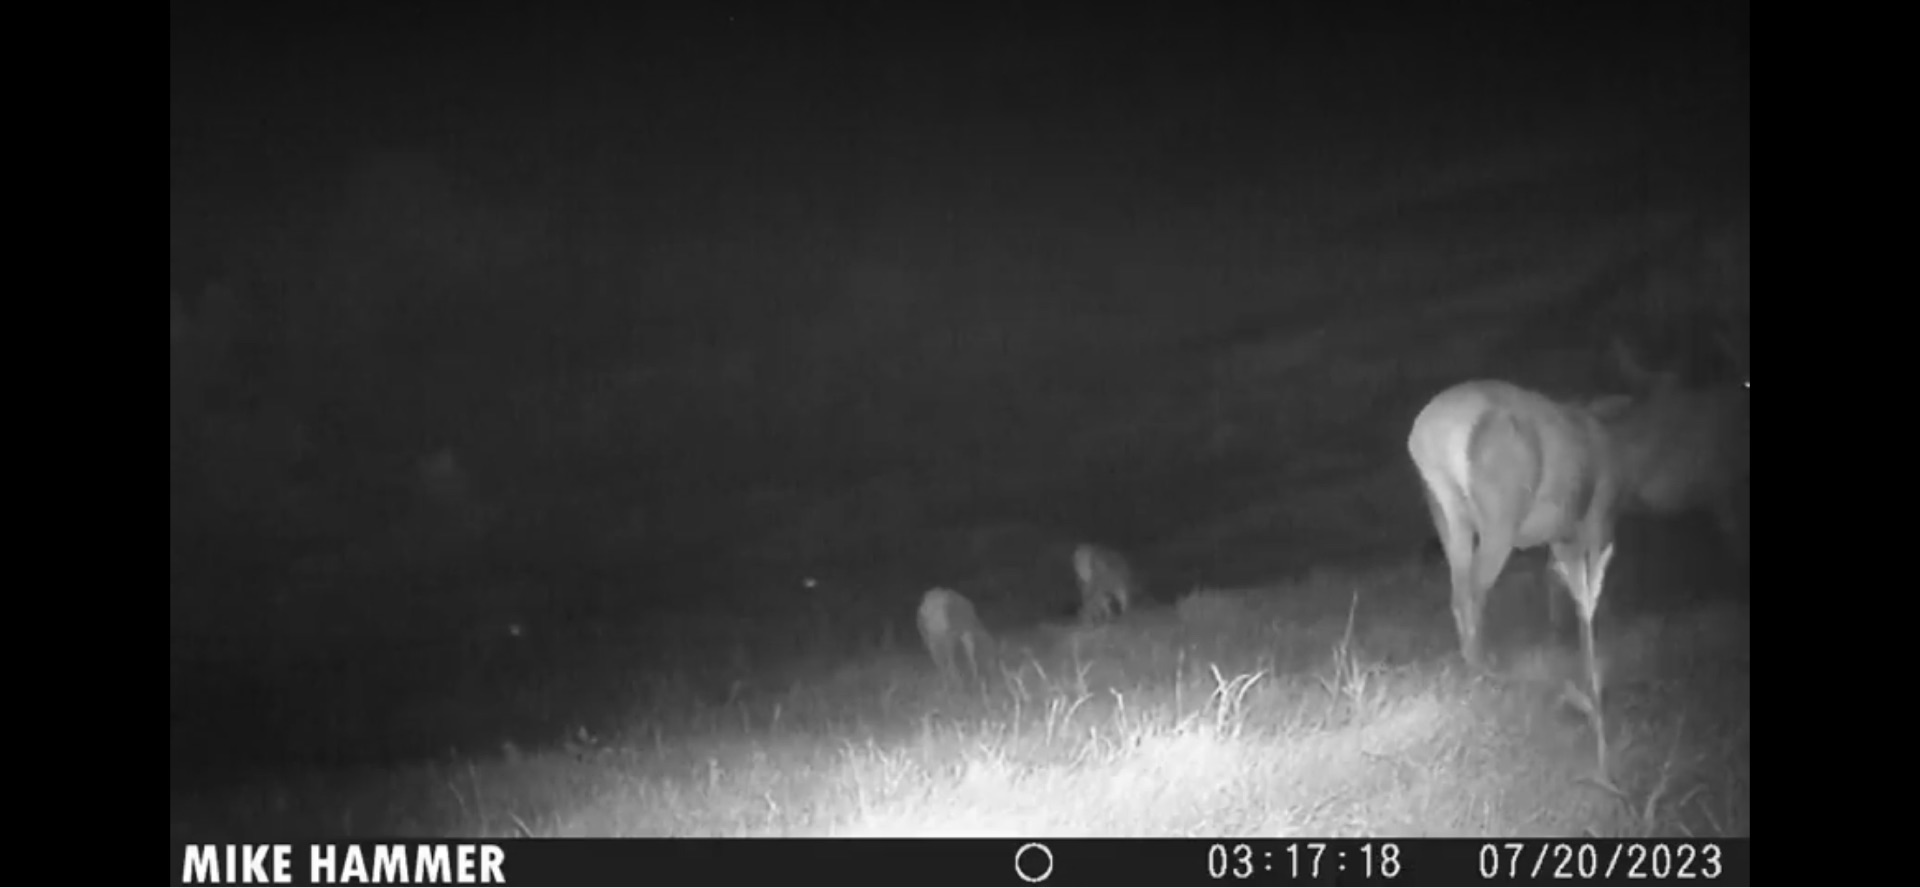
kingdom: Animalia
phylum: Chordata
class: Mammalia
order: Artiodactyla
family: Cervidae
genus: Cervus
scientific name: Cervus elaphus
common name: Krondyr
